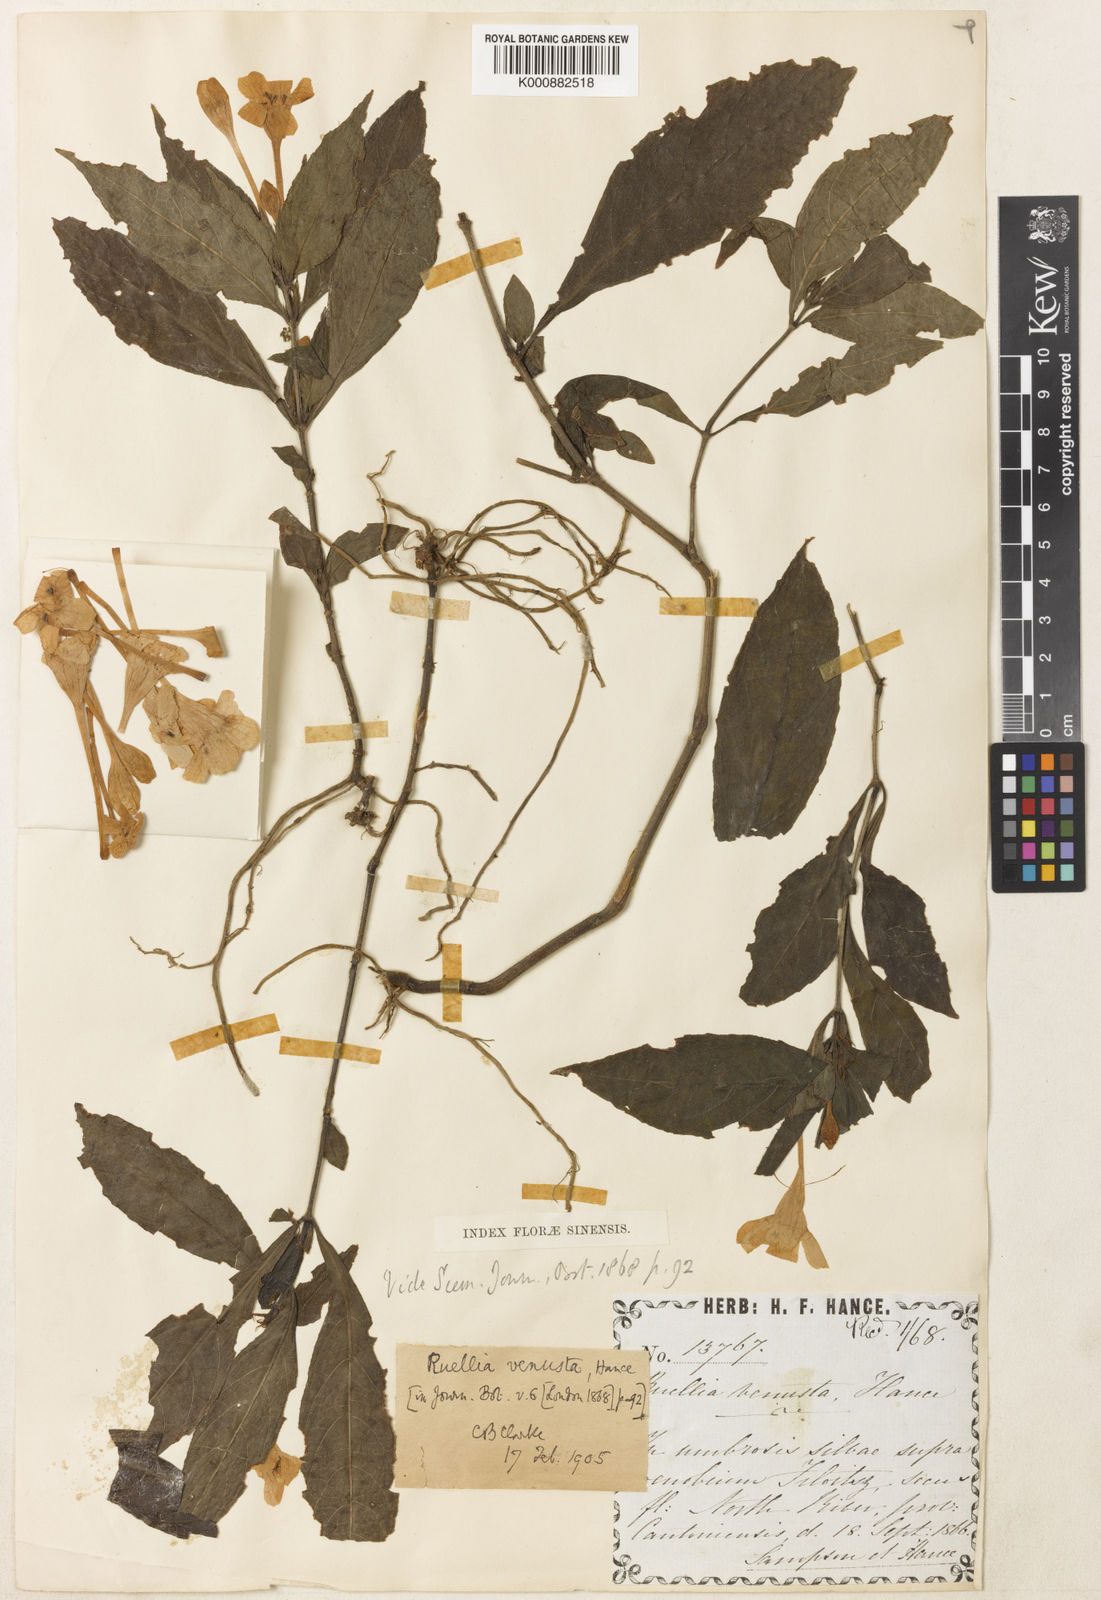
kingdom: Plantae
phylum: Tracheophyta
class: Magnoliopsida
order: Lamiales
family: Acanthaceae
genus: Pseudosiphonium
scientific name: Pseudosiphonium venustum
